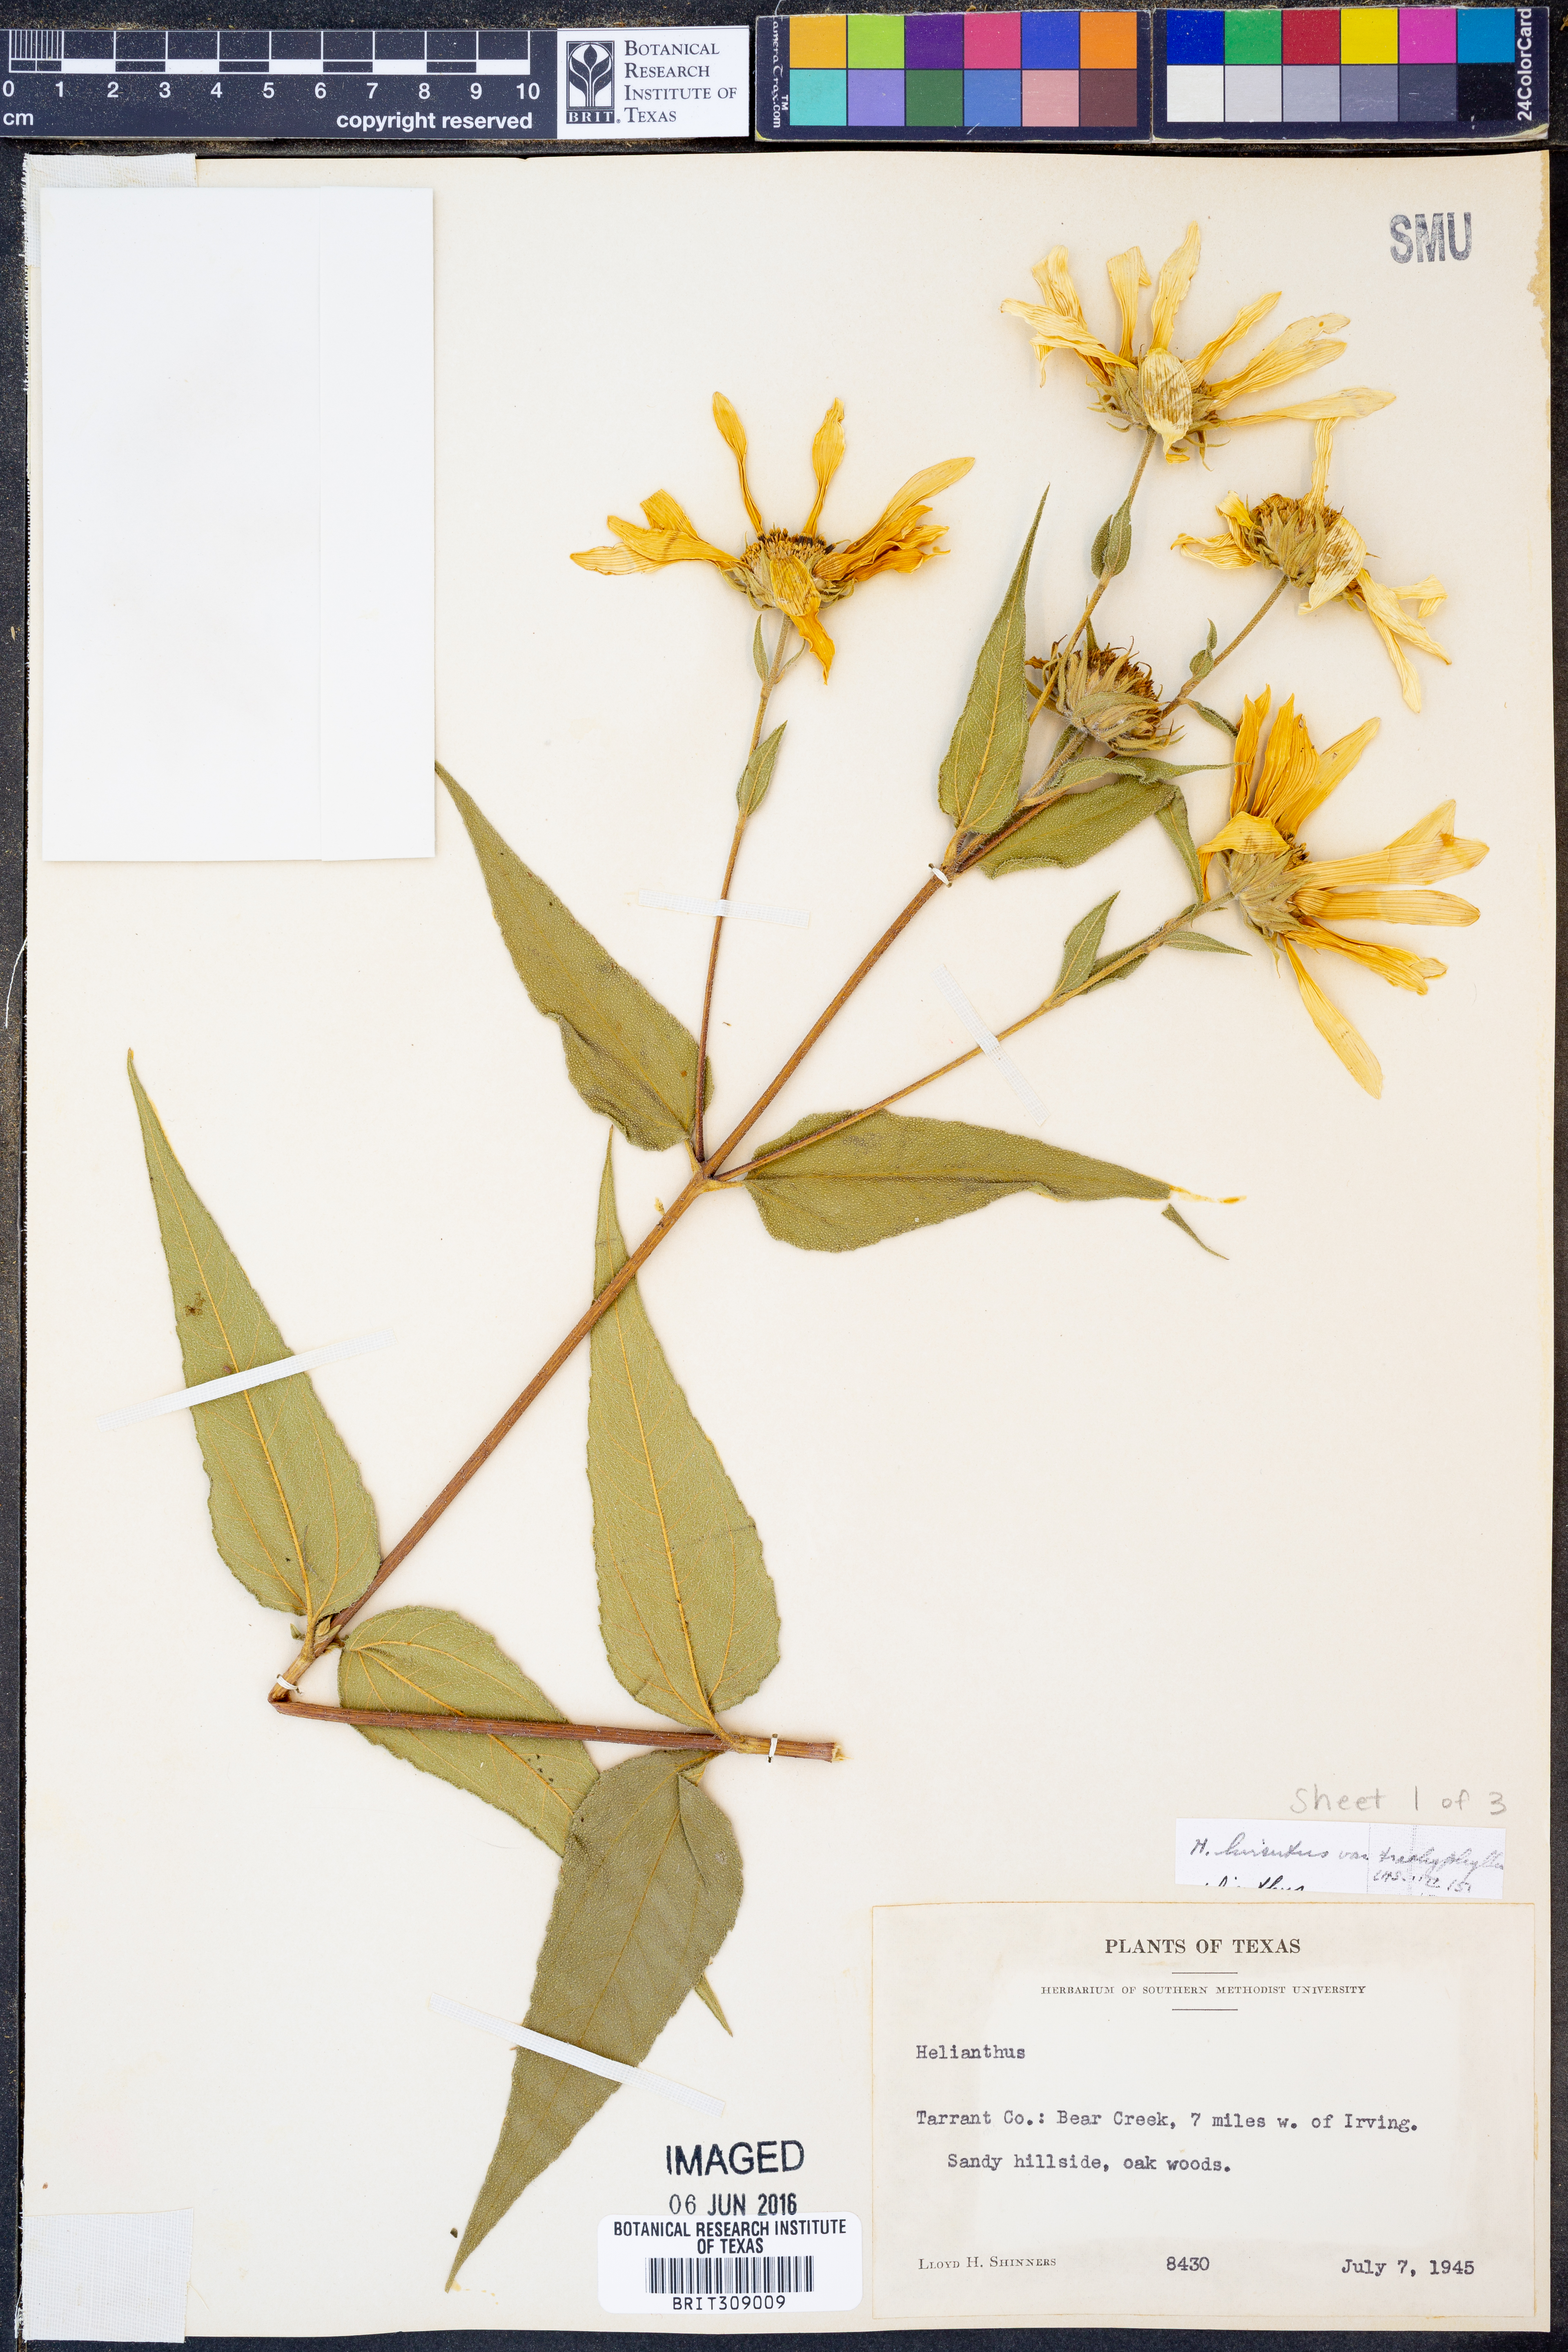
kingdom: Plantae
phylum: Tracheophyta
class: Magnoliopsida
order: Asterales
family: Asteraceae
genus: Helianthus
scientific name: Helianthus hirsutus
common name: Hairy sunflower
